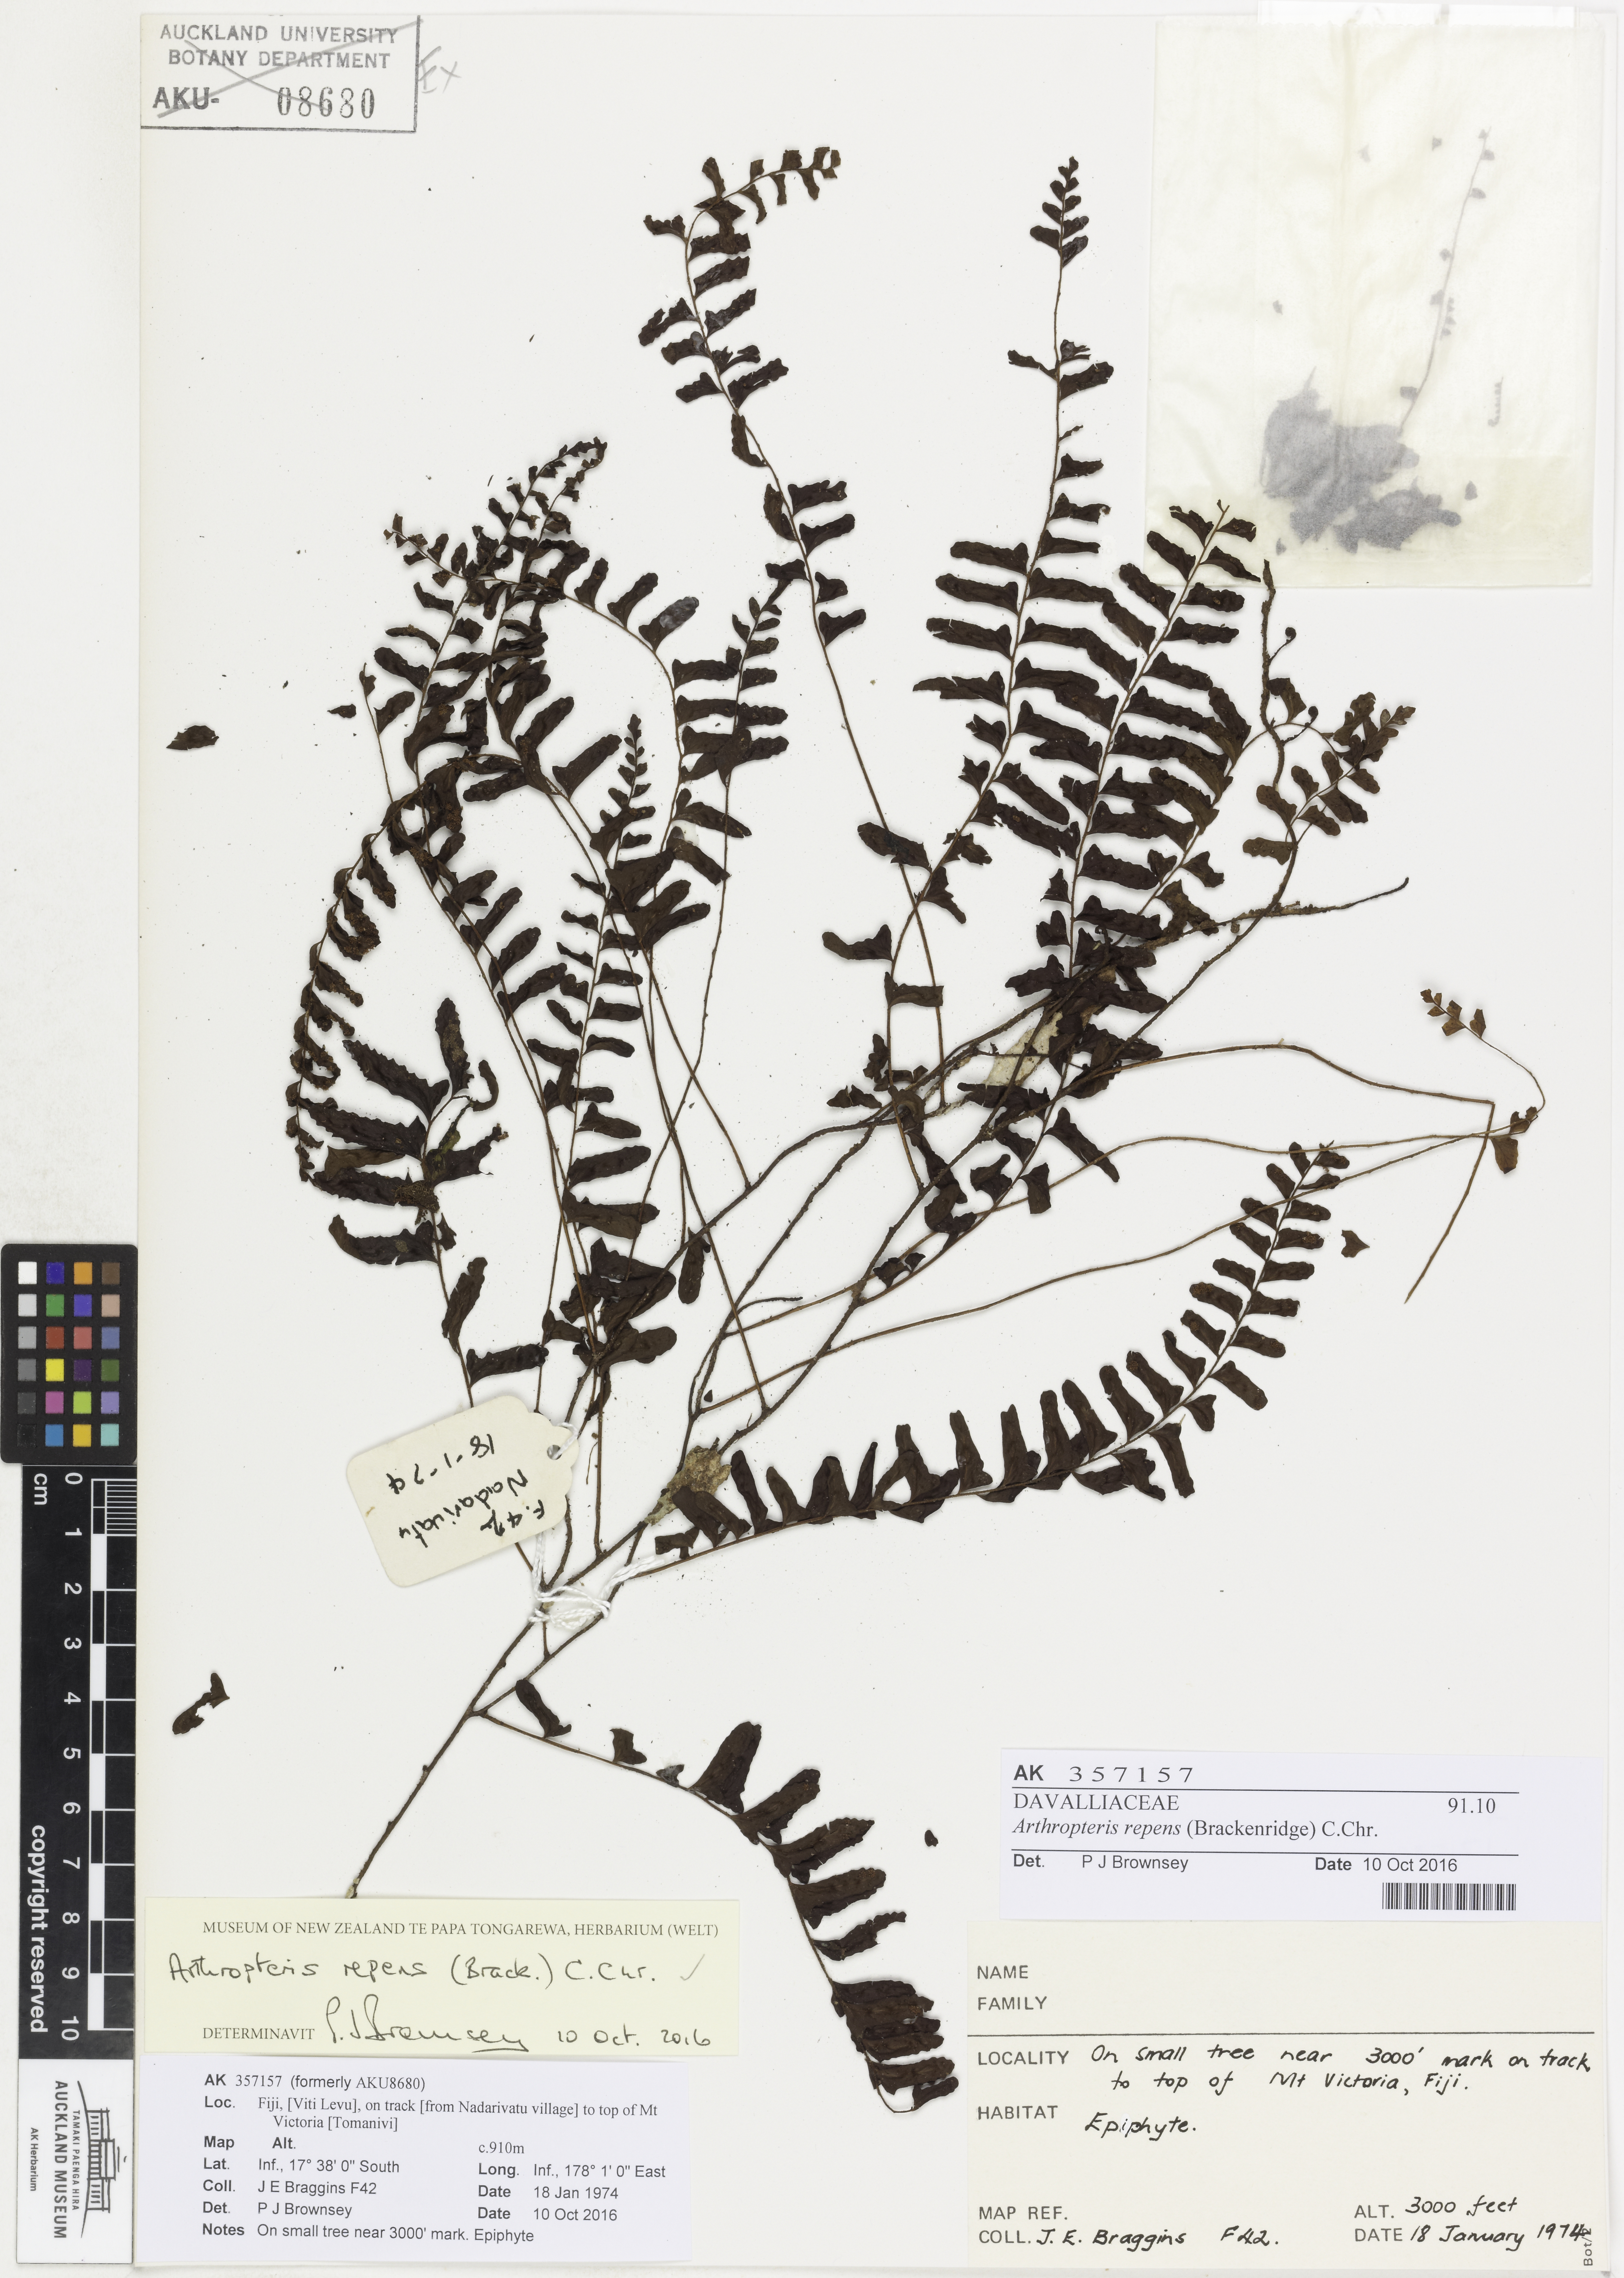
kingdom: Plantae
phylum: Tracheophyta
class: Polypodiopsida
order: Polypodiales
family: Tectariaceae
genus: Arthropteris
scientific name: Arthropteris palisotii
